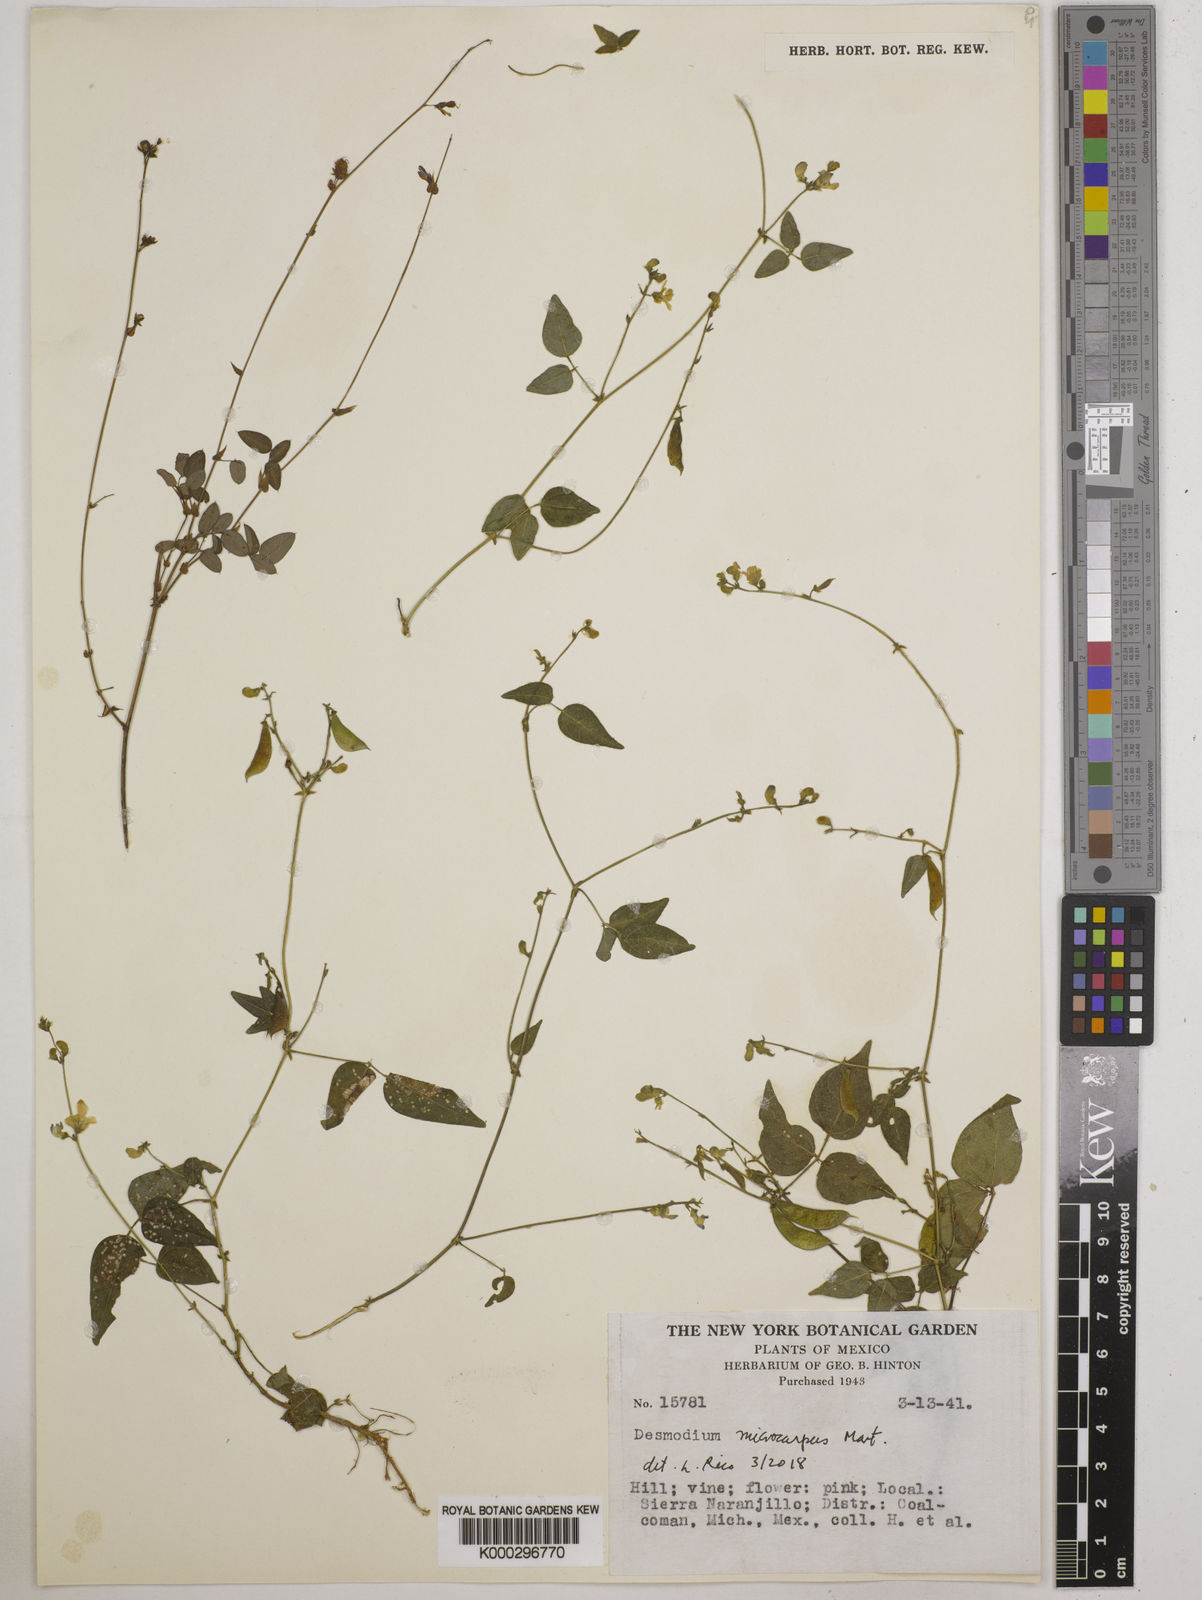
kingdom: Plantae
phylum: Tracheophyta
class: Magnoliopsida
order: Fabales
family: Fabaceae
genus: Phaseolus
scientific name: Phaseolus microcarpus
